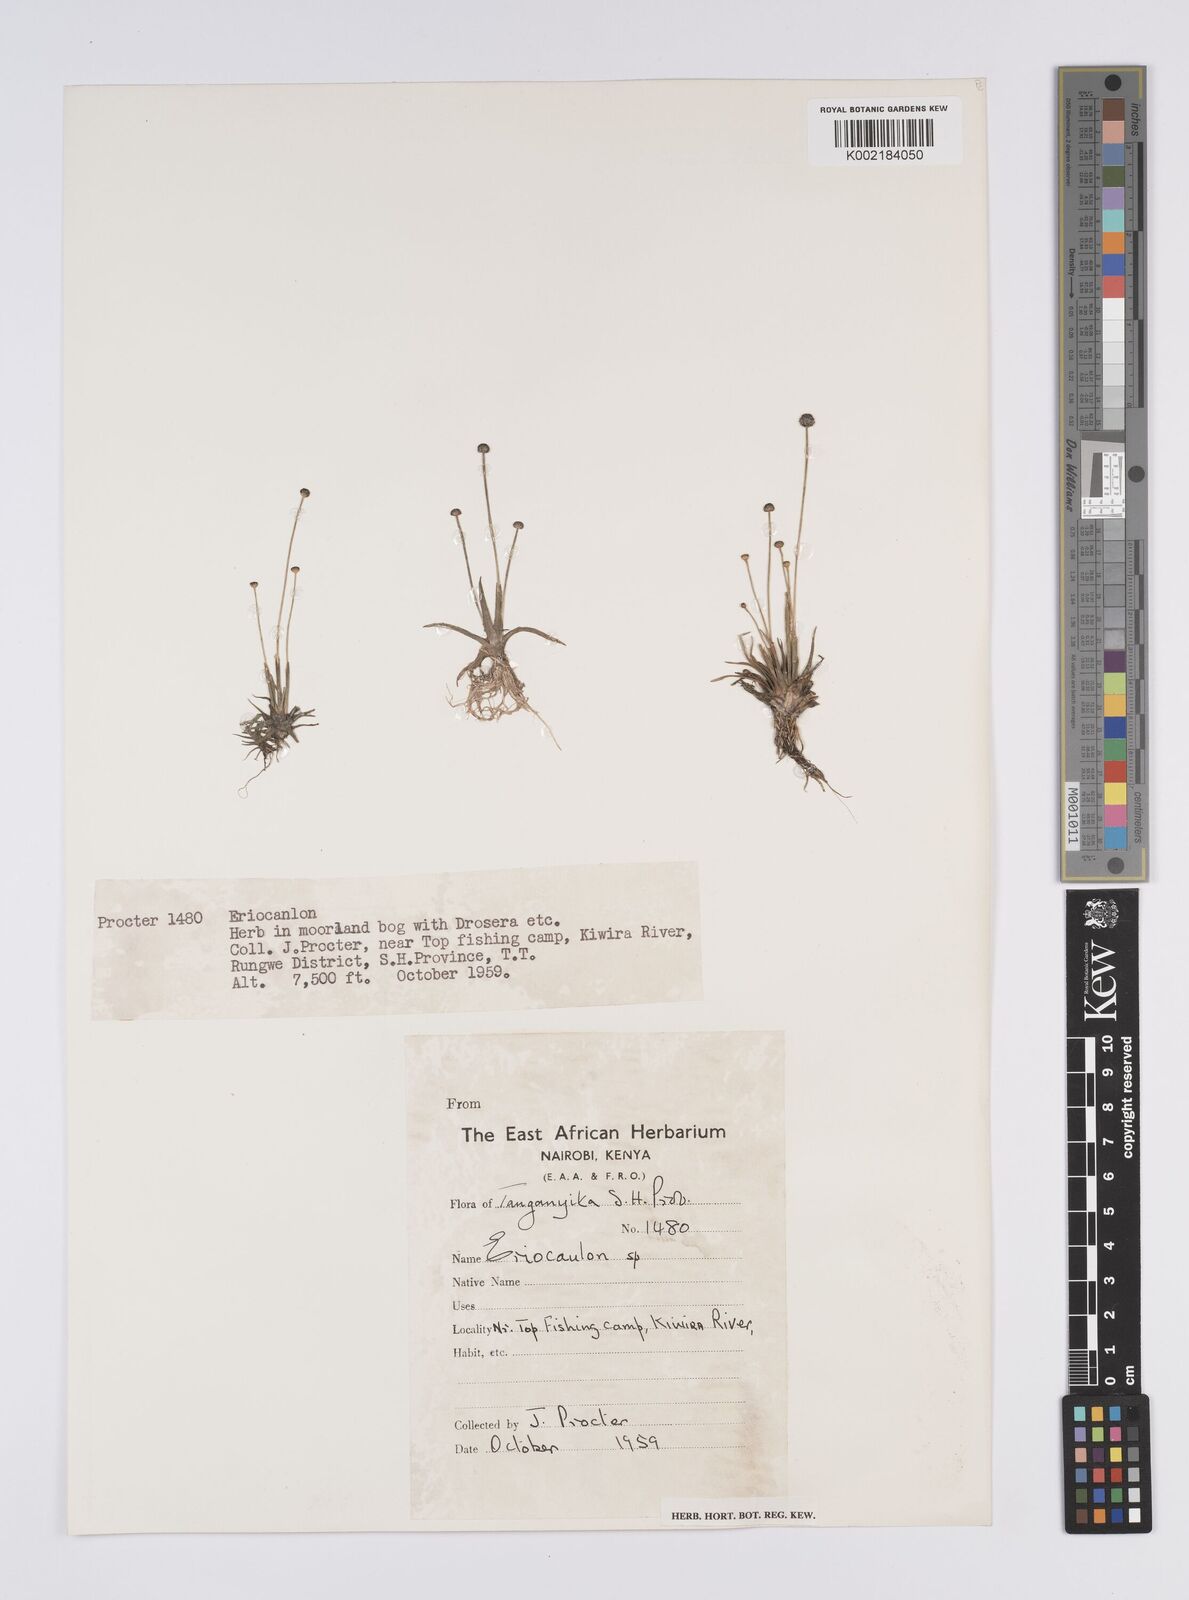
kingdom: Plantae
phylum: Tracheophyta
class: Liliopsida
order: Poales
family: Eriocaulaceae
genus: Eriocaulon
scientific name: Eriocaulon
